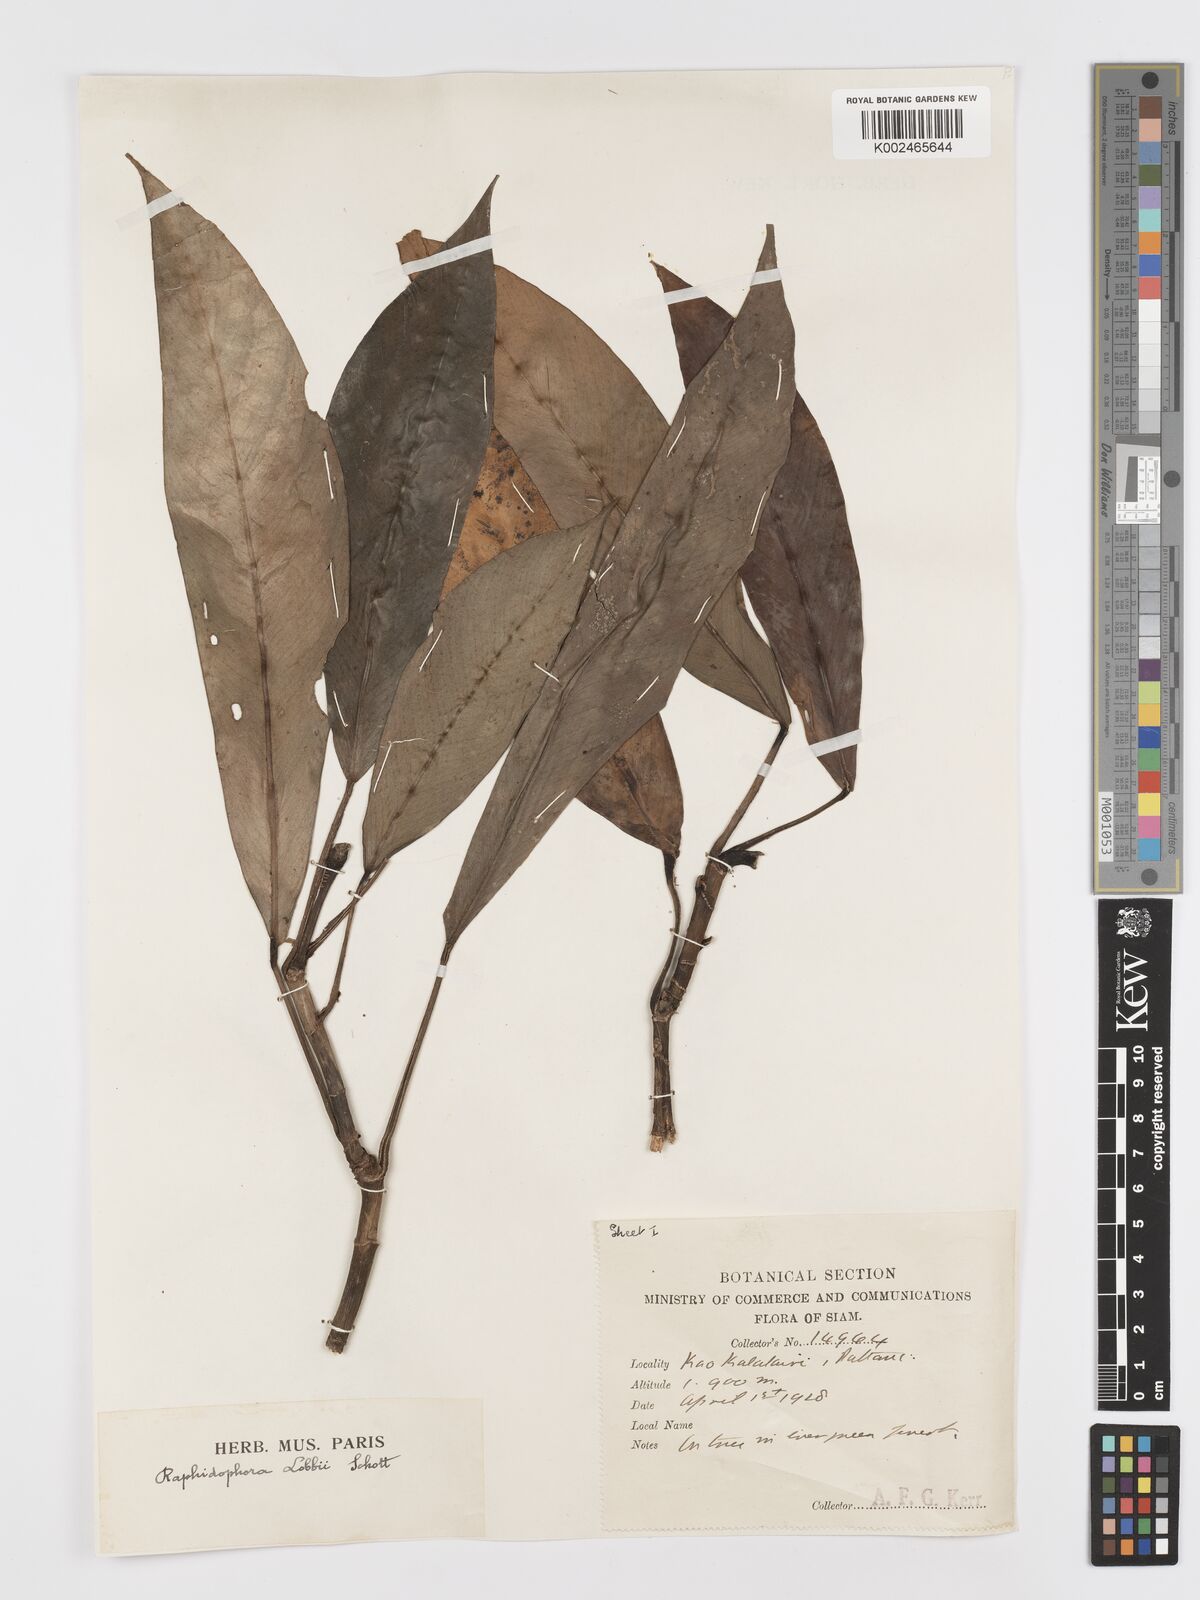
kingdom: Plantae
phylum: Tracheophyta
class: Liliopsida
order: Alismatales
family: Araceae
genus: Rhaphidophora
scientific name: Rhaphidophora sylvestris
